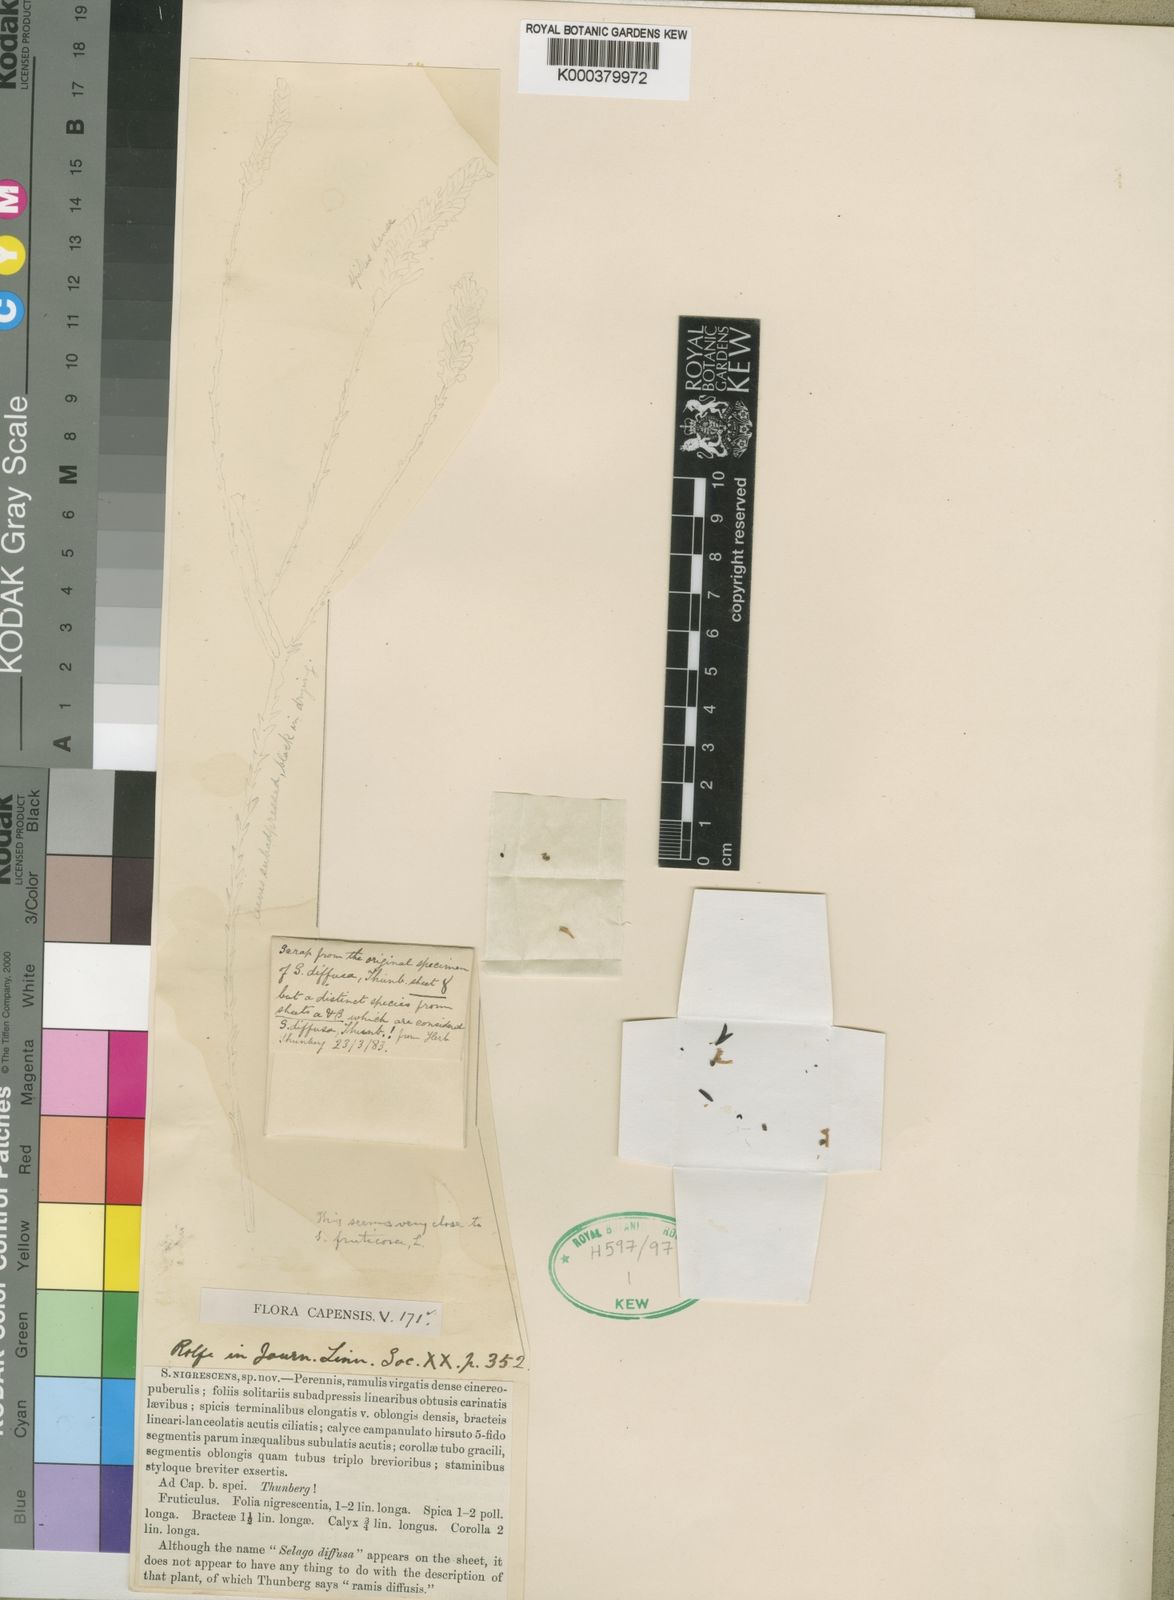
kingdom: Plantae
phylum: Tracheophyta
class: Magnoliopsida
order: Lamiales
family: Scrophulariaceae
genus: Selago
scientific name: Selago nigrescens
